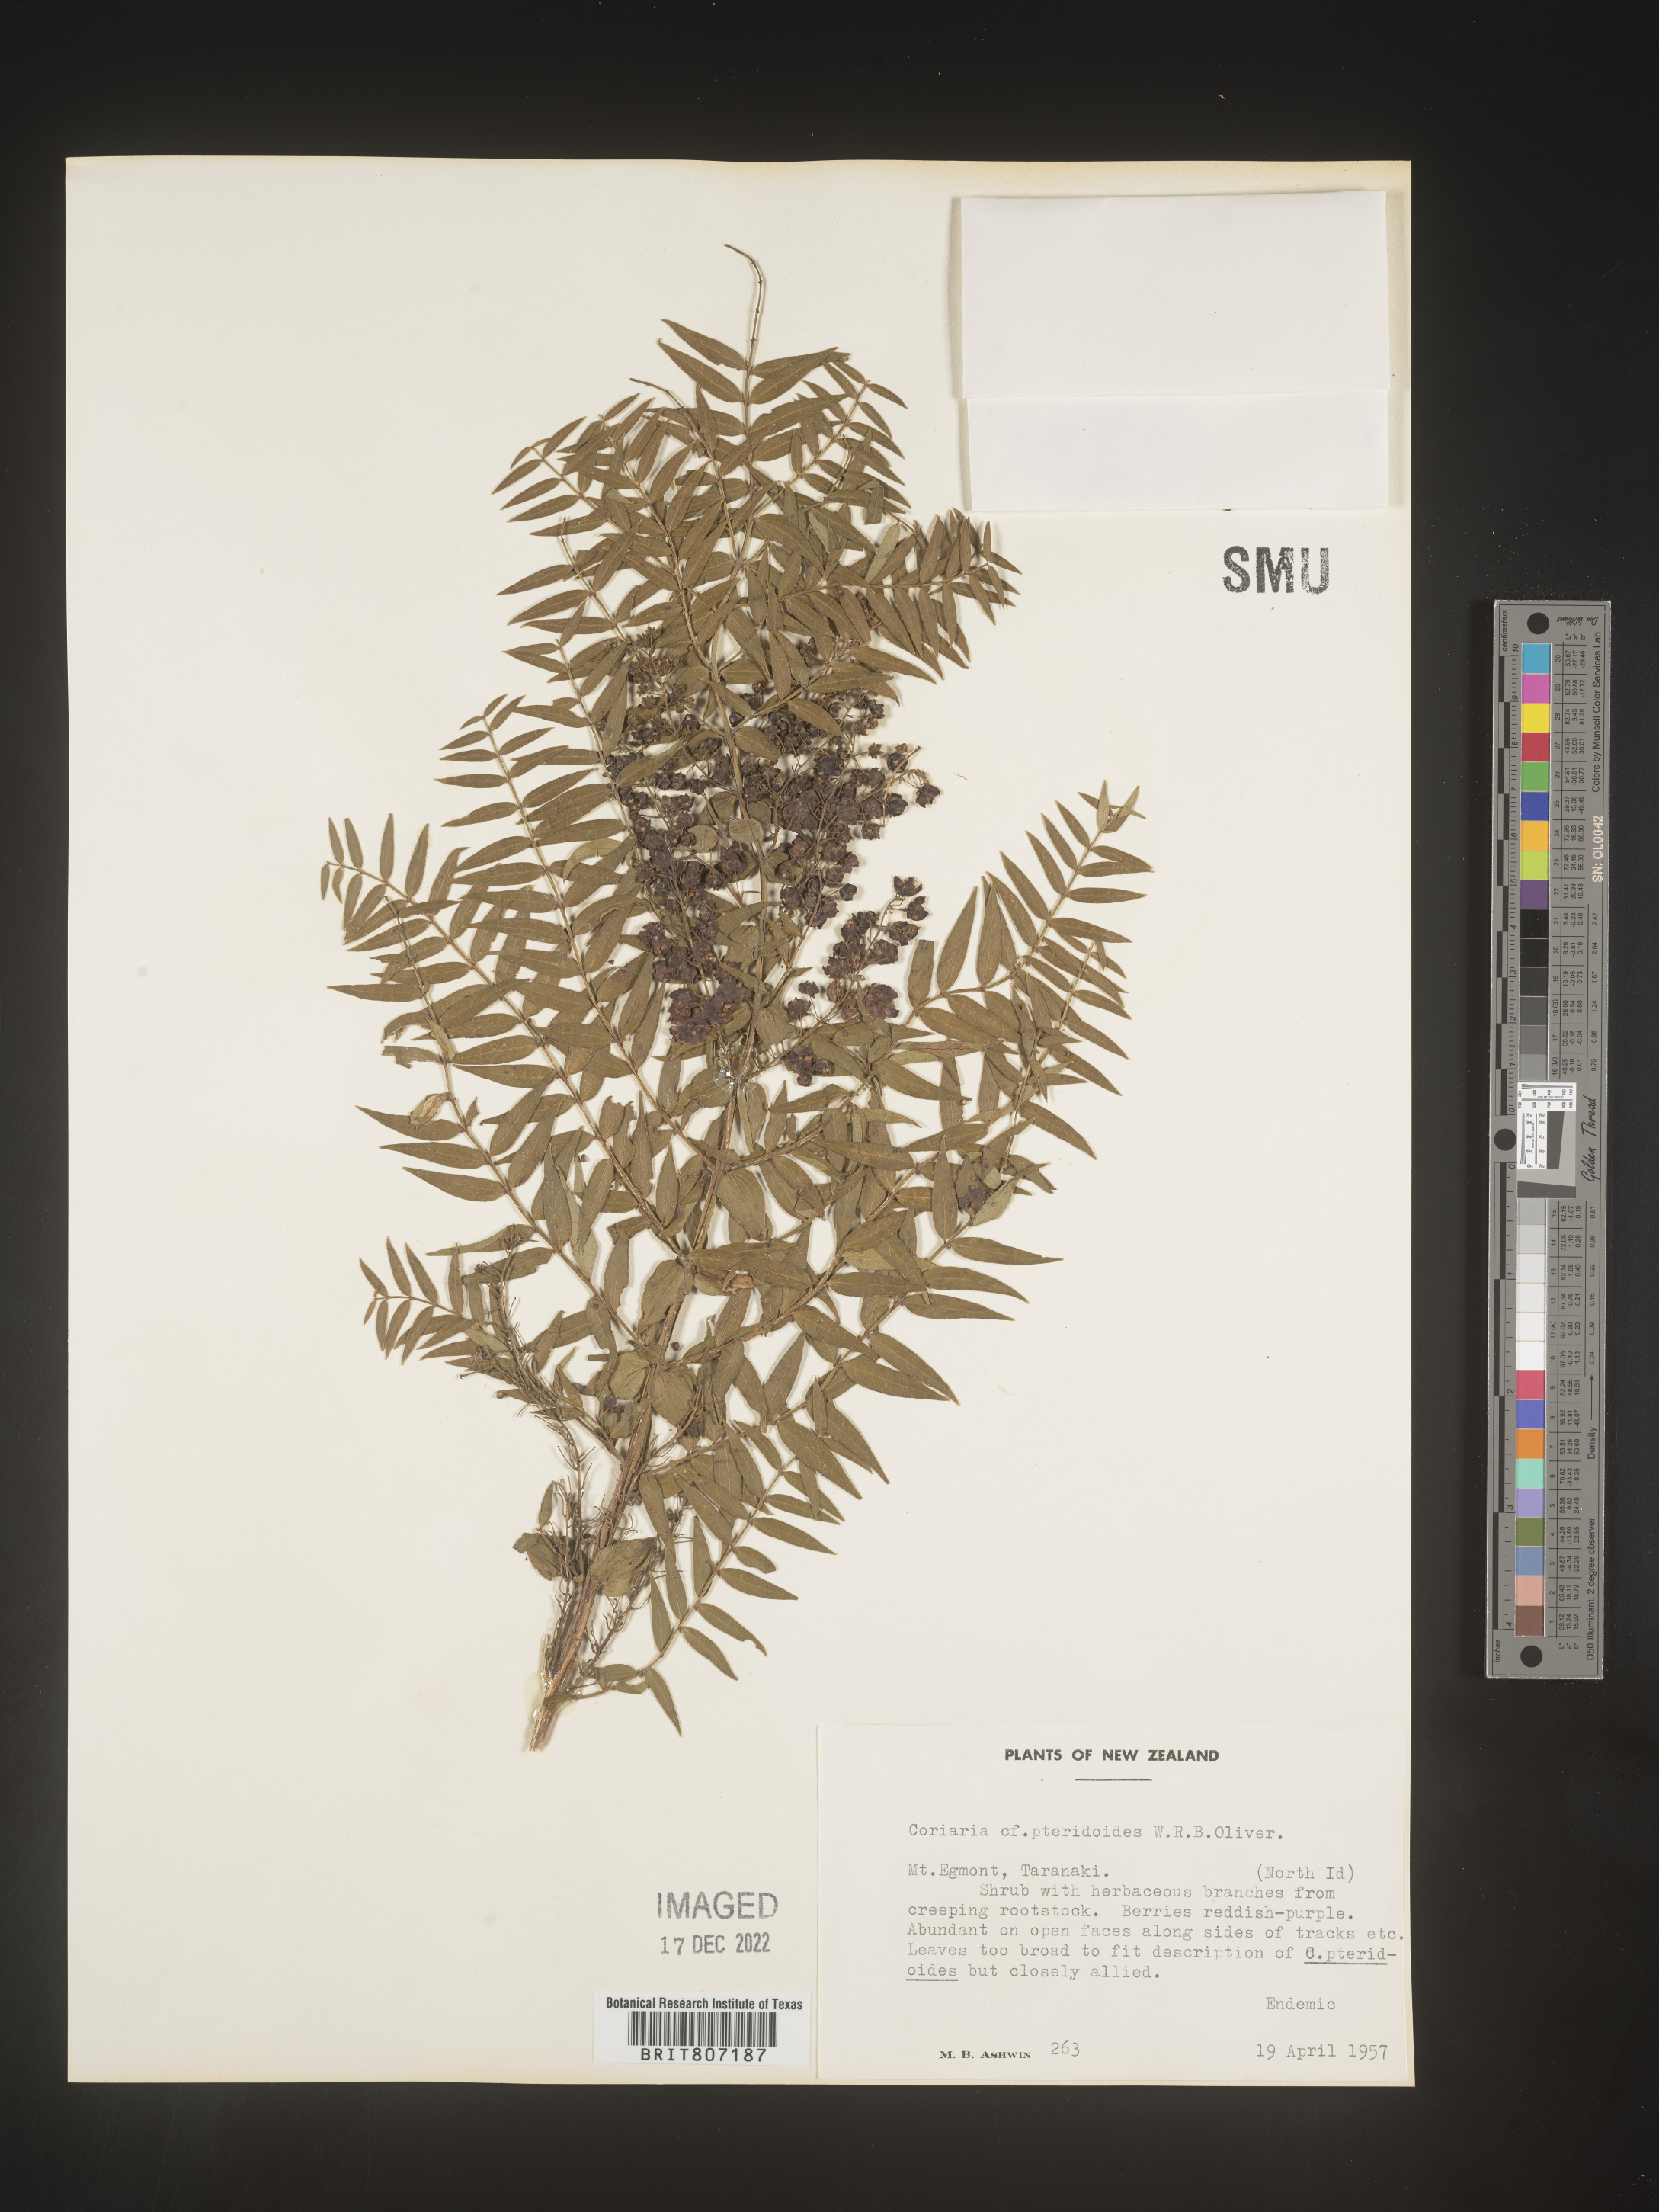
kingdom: Plantae
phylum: Tracheophyta
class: Magnoliopsida
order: Cucurbitales
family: Coriariaceae
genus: Coriaria
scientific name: Coriaria
